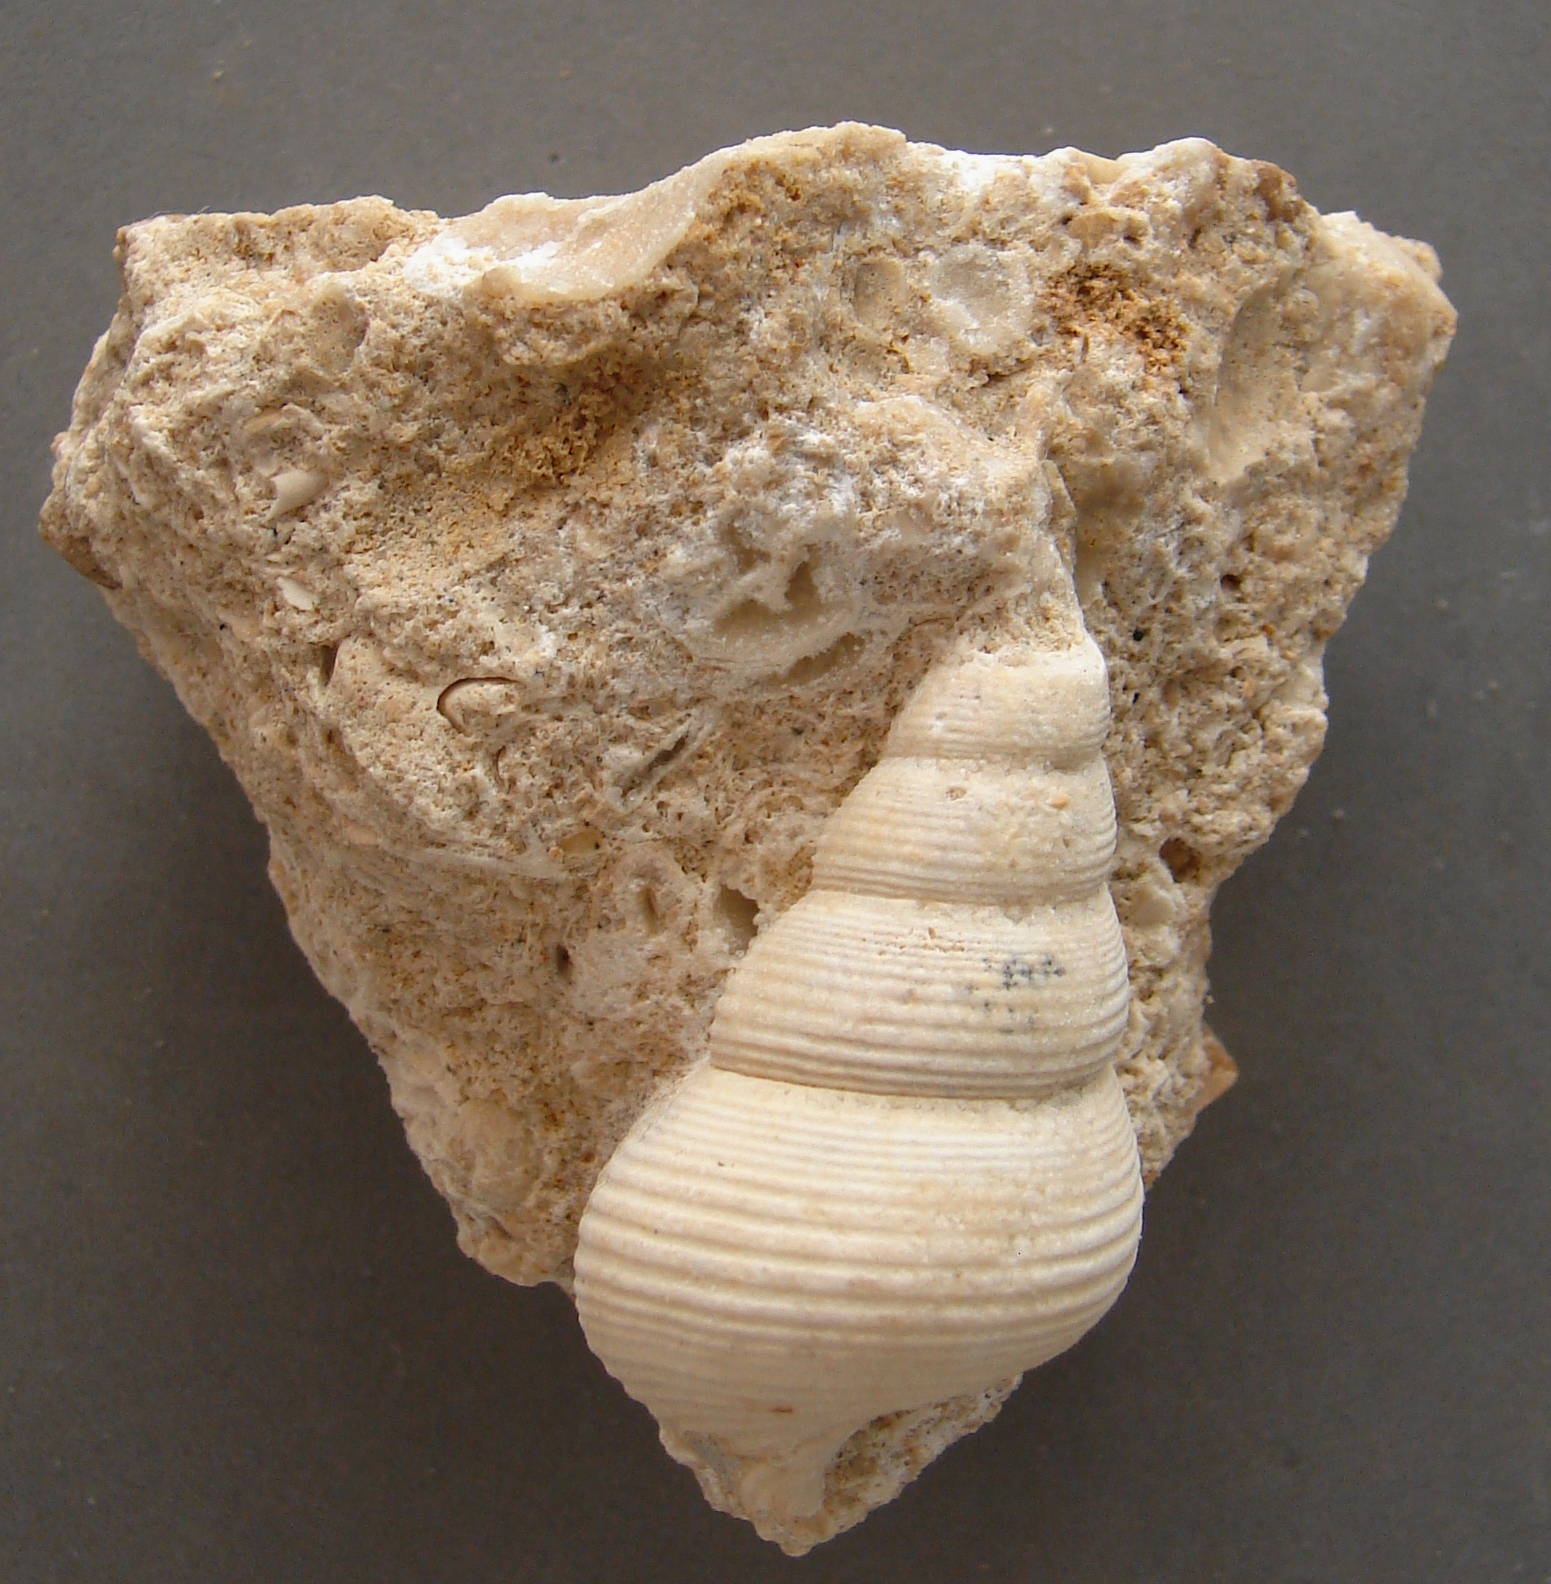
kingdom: Animalia
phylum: Mollusca
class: Gastropoda
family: Pseudomelaniidae
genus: Bourgetia
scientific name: Bourgetia
